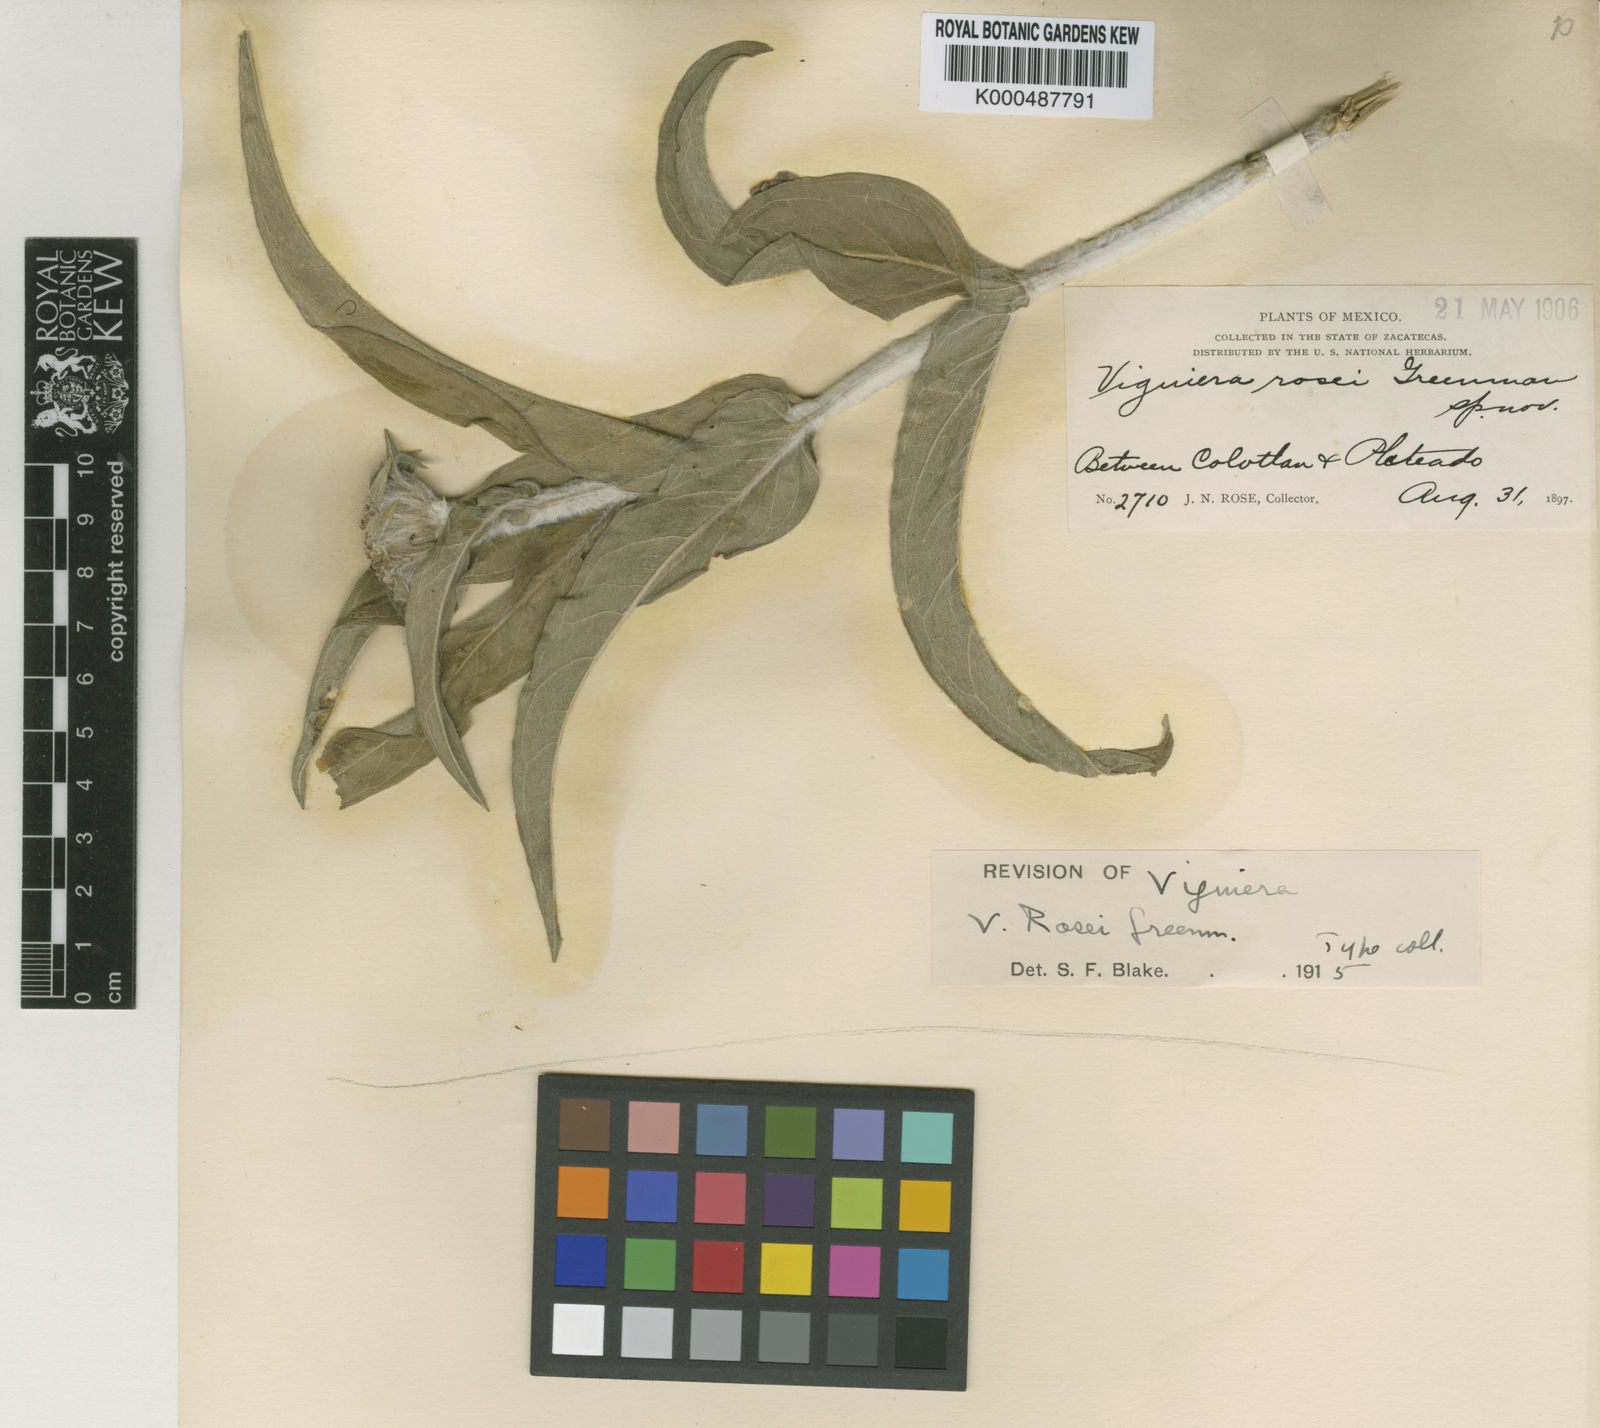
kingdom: Plantae
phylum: Tracheophyta
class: Magnoliopsida
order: Asterales
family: Asteraceae
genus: Gonzalezia
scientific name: Gonzalezia rosei
